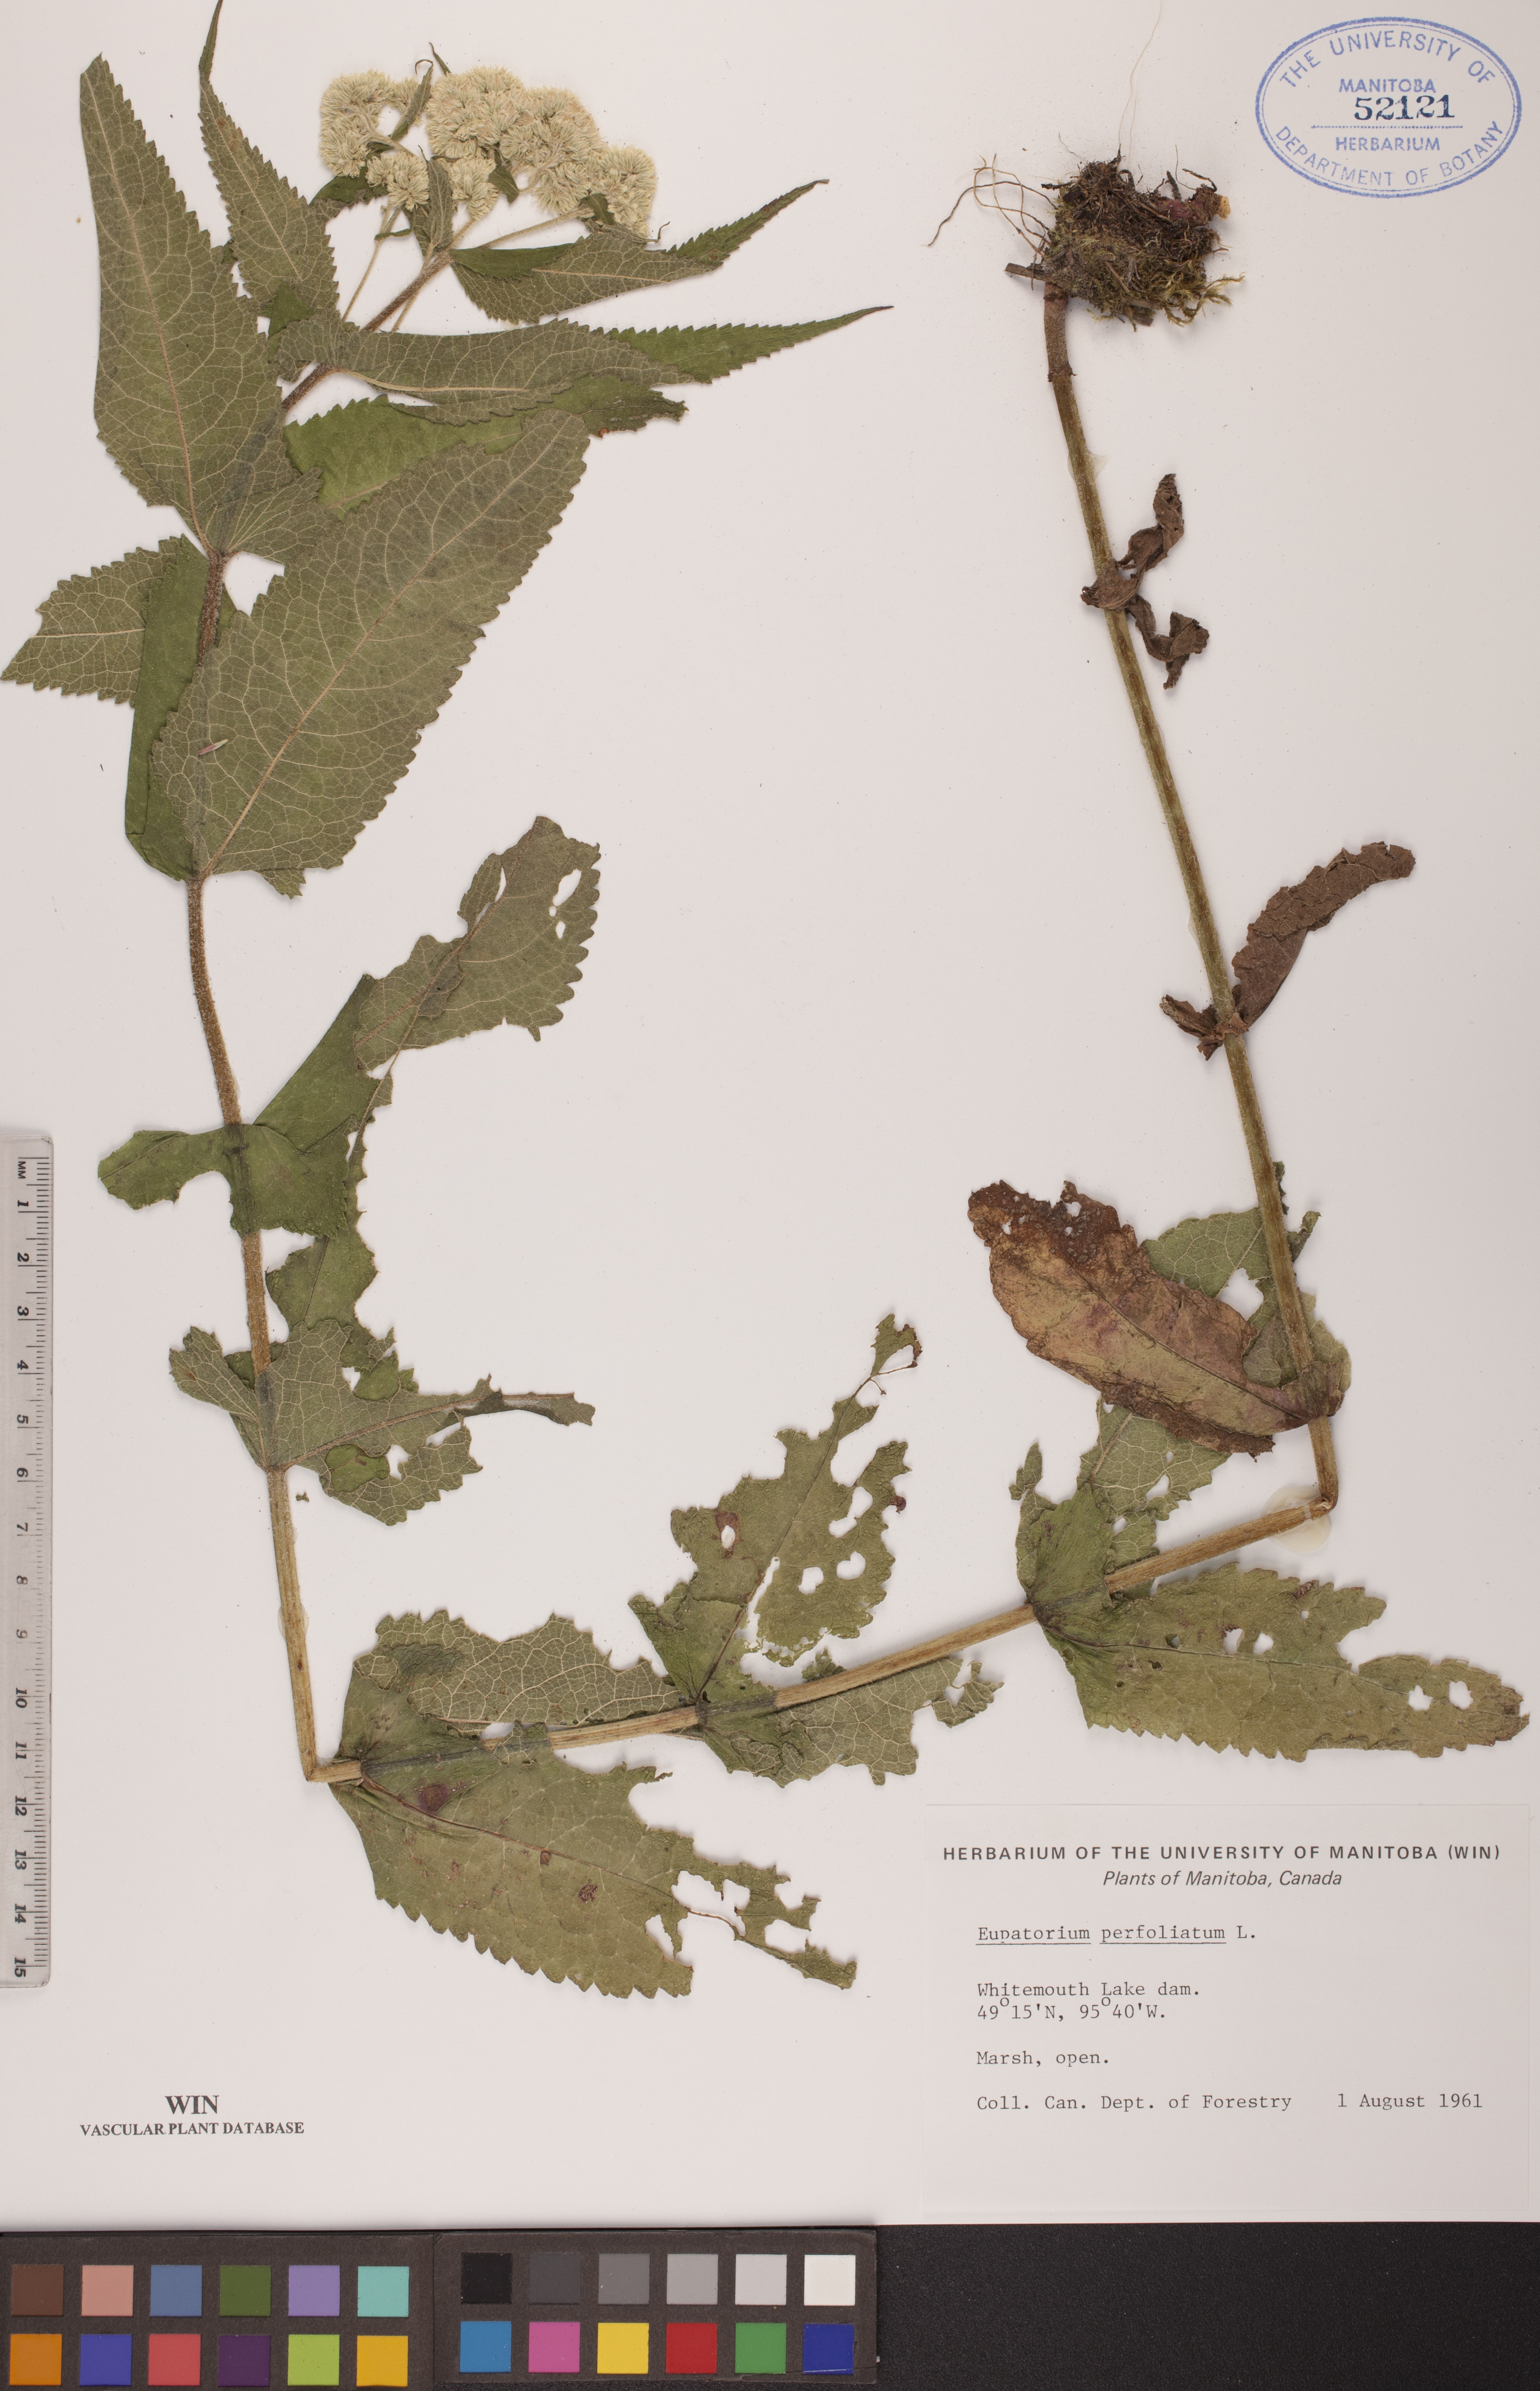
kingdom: Plantae
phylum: Tracheophyta
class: Magnoliopsida
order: Asterales
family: Asteraceae
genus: Eupatorium
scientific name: Eupatorium perfoliatum
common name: Boneset
